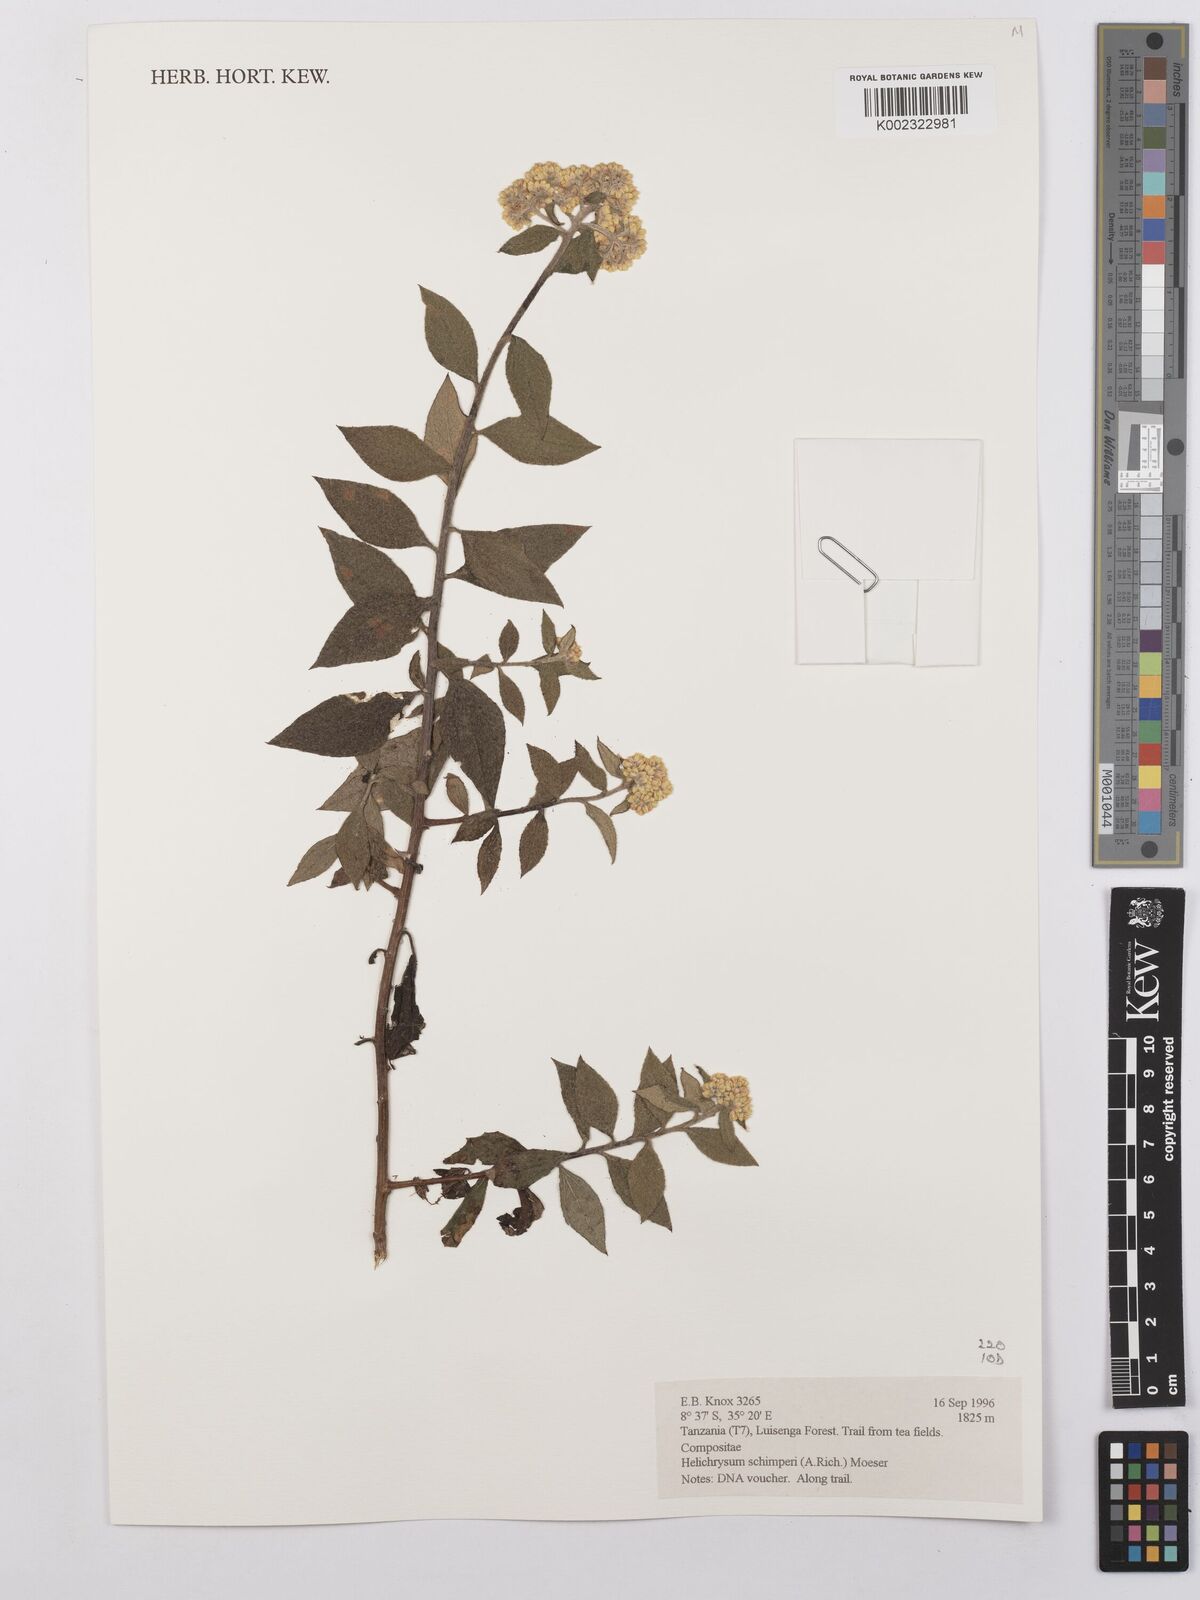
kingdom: Plantae
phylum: Tracheophyta
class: Magnoliopsida
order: Asterales
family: Asteraceae
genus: Helichrysum
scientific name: Helichrysum schimperi
